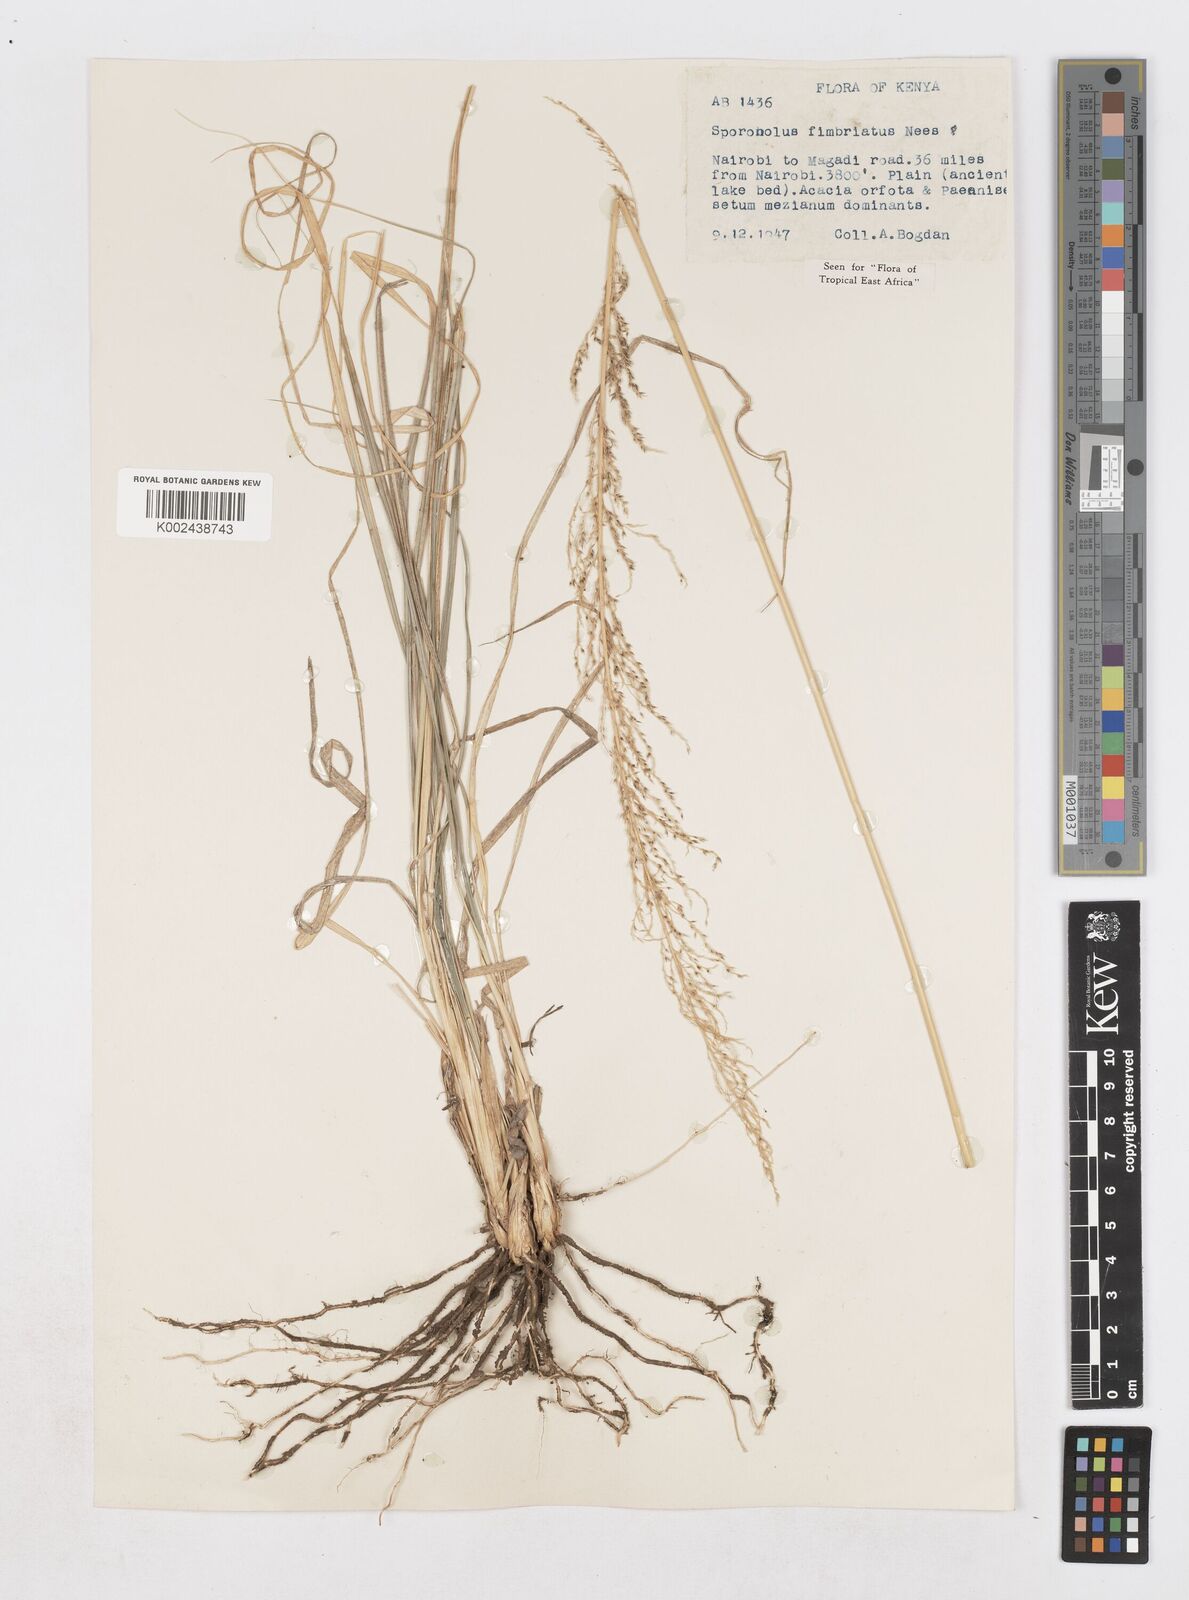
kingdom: Plantae
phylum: Tracheophyta
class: Liliopsida
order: Poales
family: Poaceae
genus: Sporobolus
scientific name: Sporobolus fimbriatus
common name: Fringed dropseed
